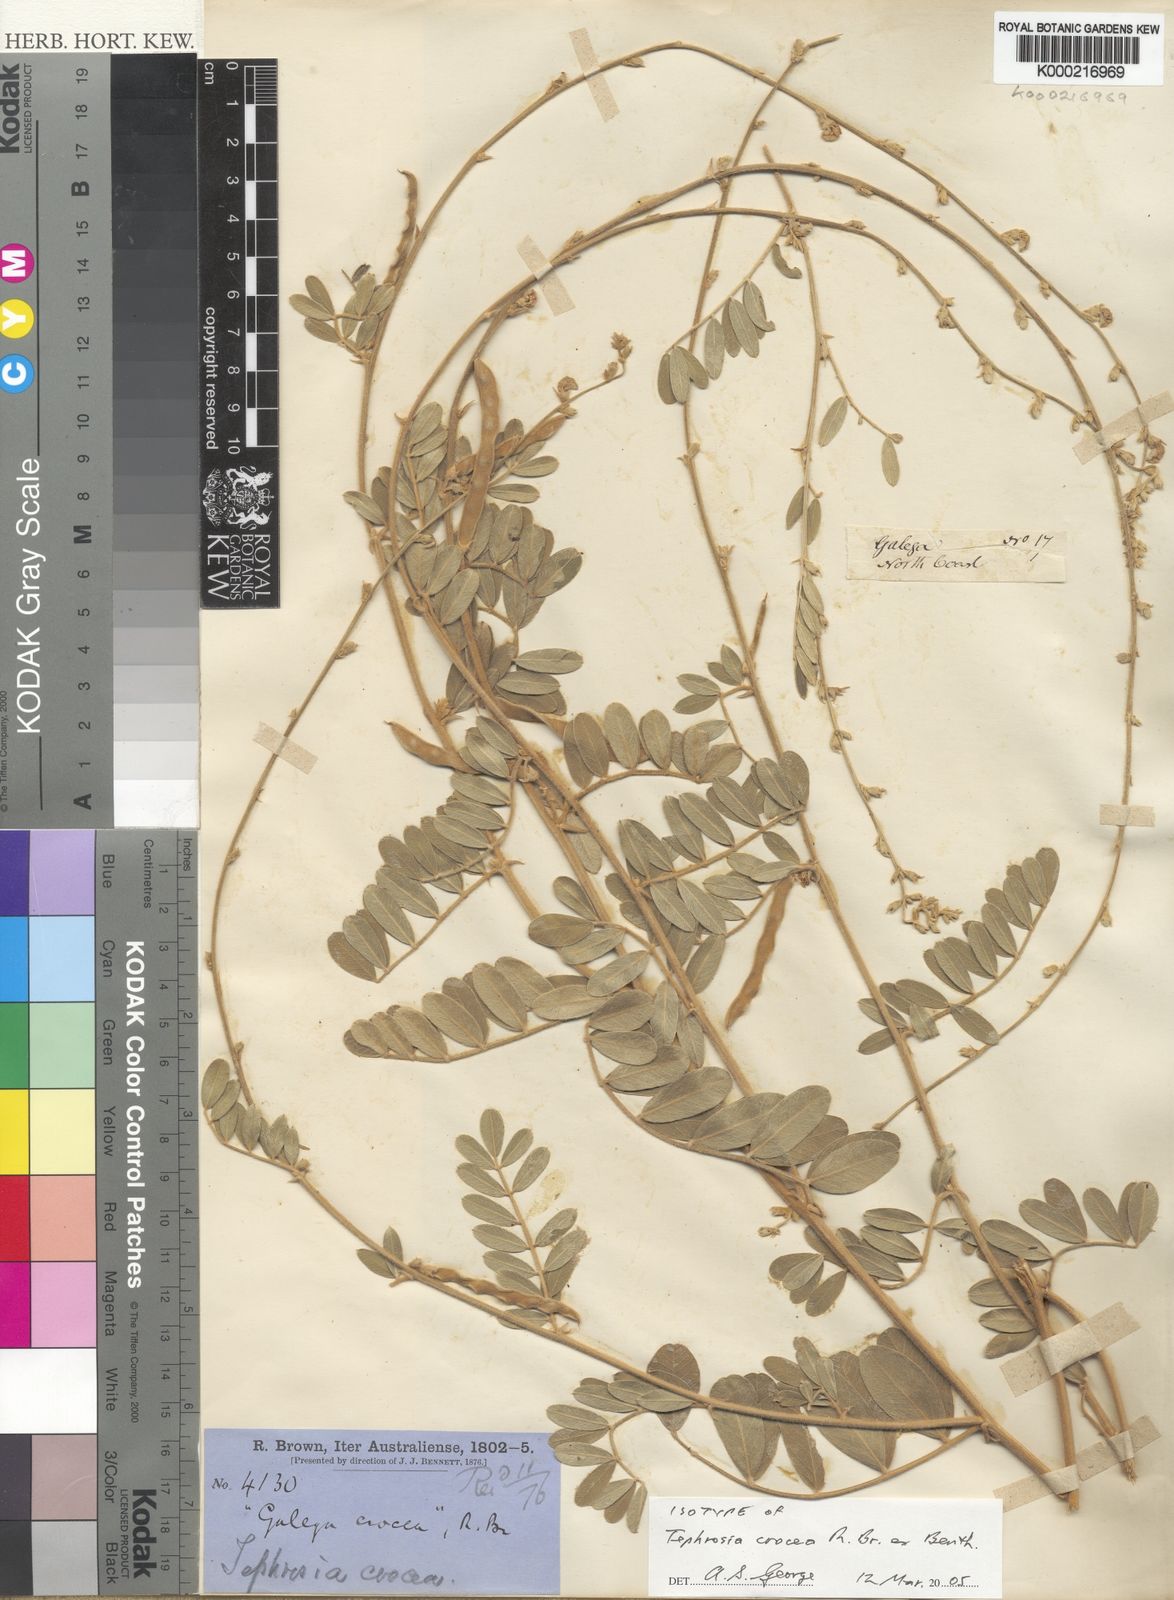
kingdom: Plantae
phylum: Tracheophyta
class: Magnoliopsida
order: Fabales
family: Fabaceae
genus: Tephrosia
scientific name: Tephrosia crocea
